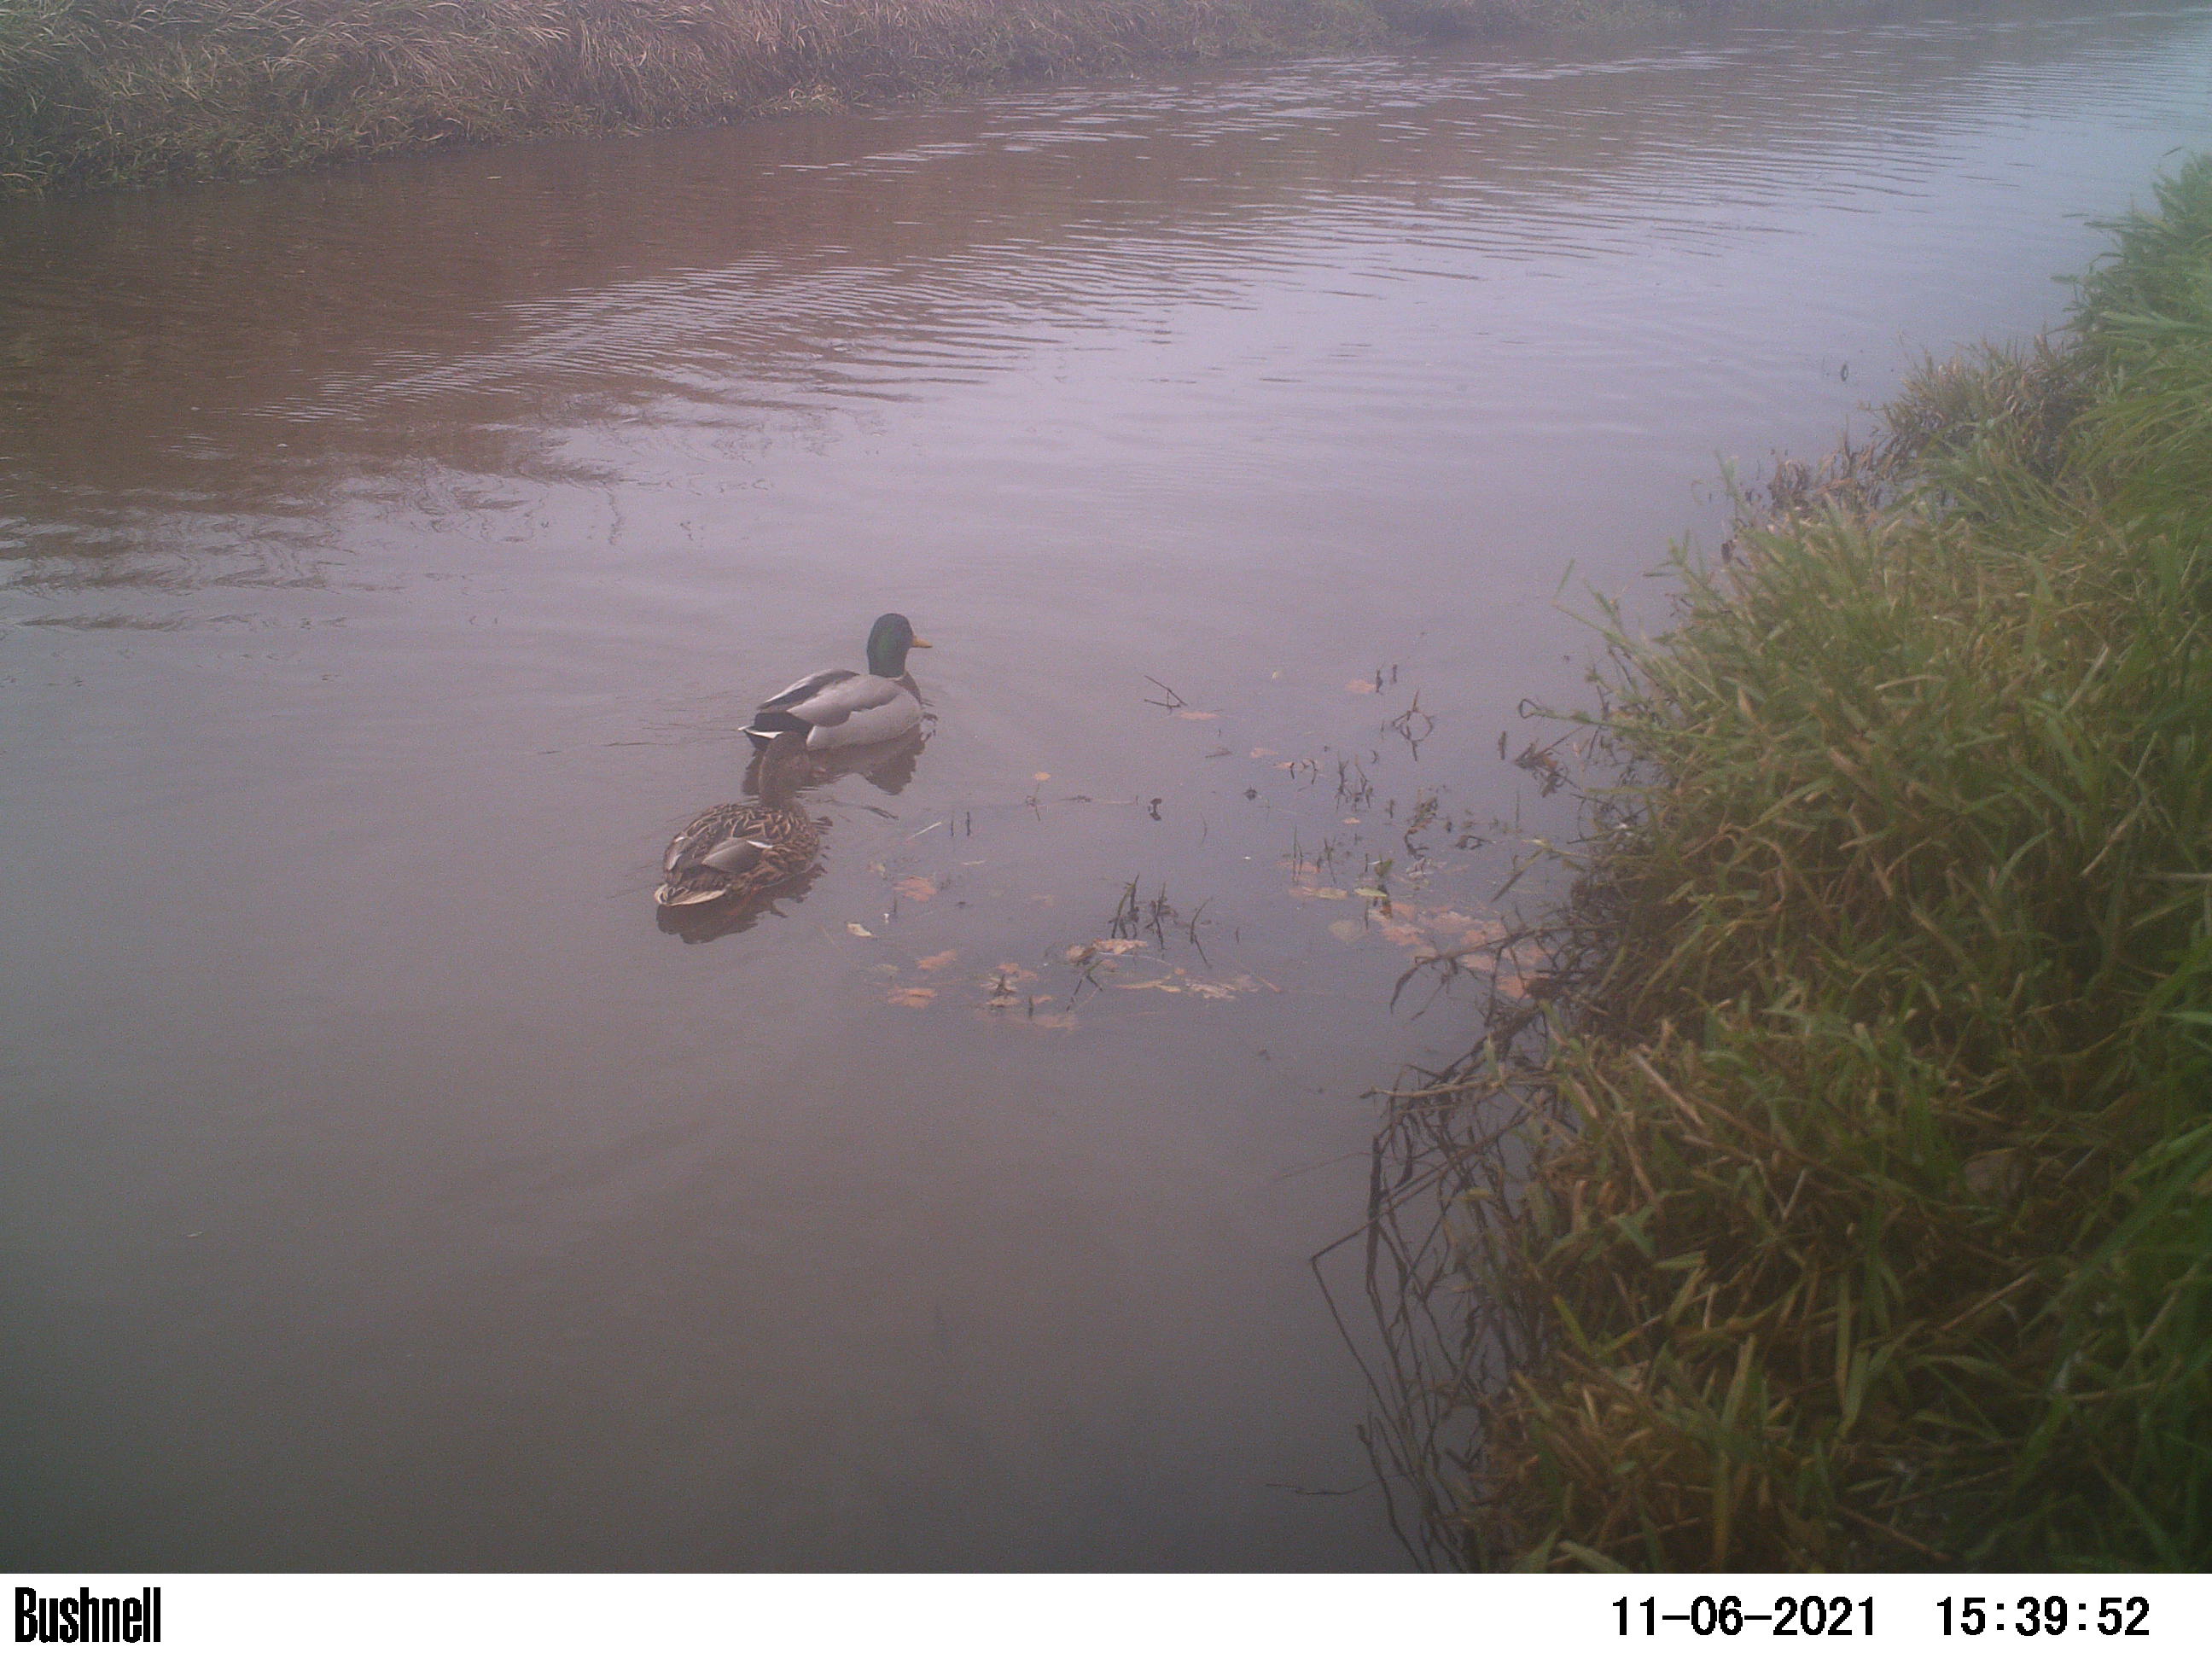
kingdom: Animalia
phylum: Chordata
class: Aves
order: Anseriformes
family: Anatidae
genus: Anas
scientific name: Anas
